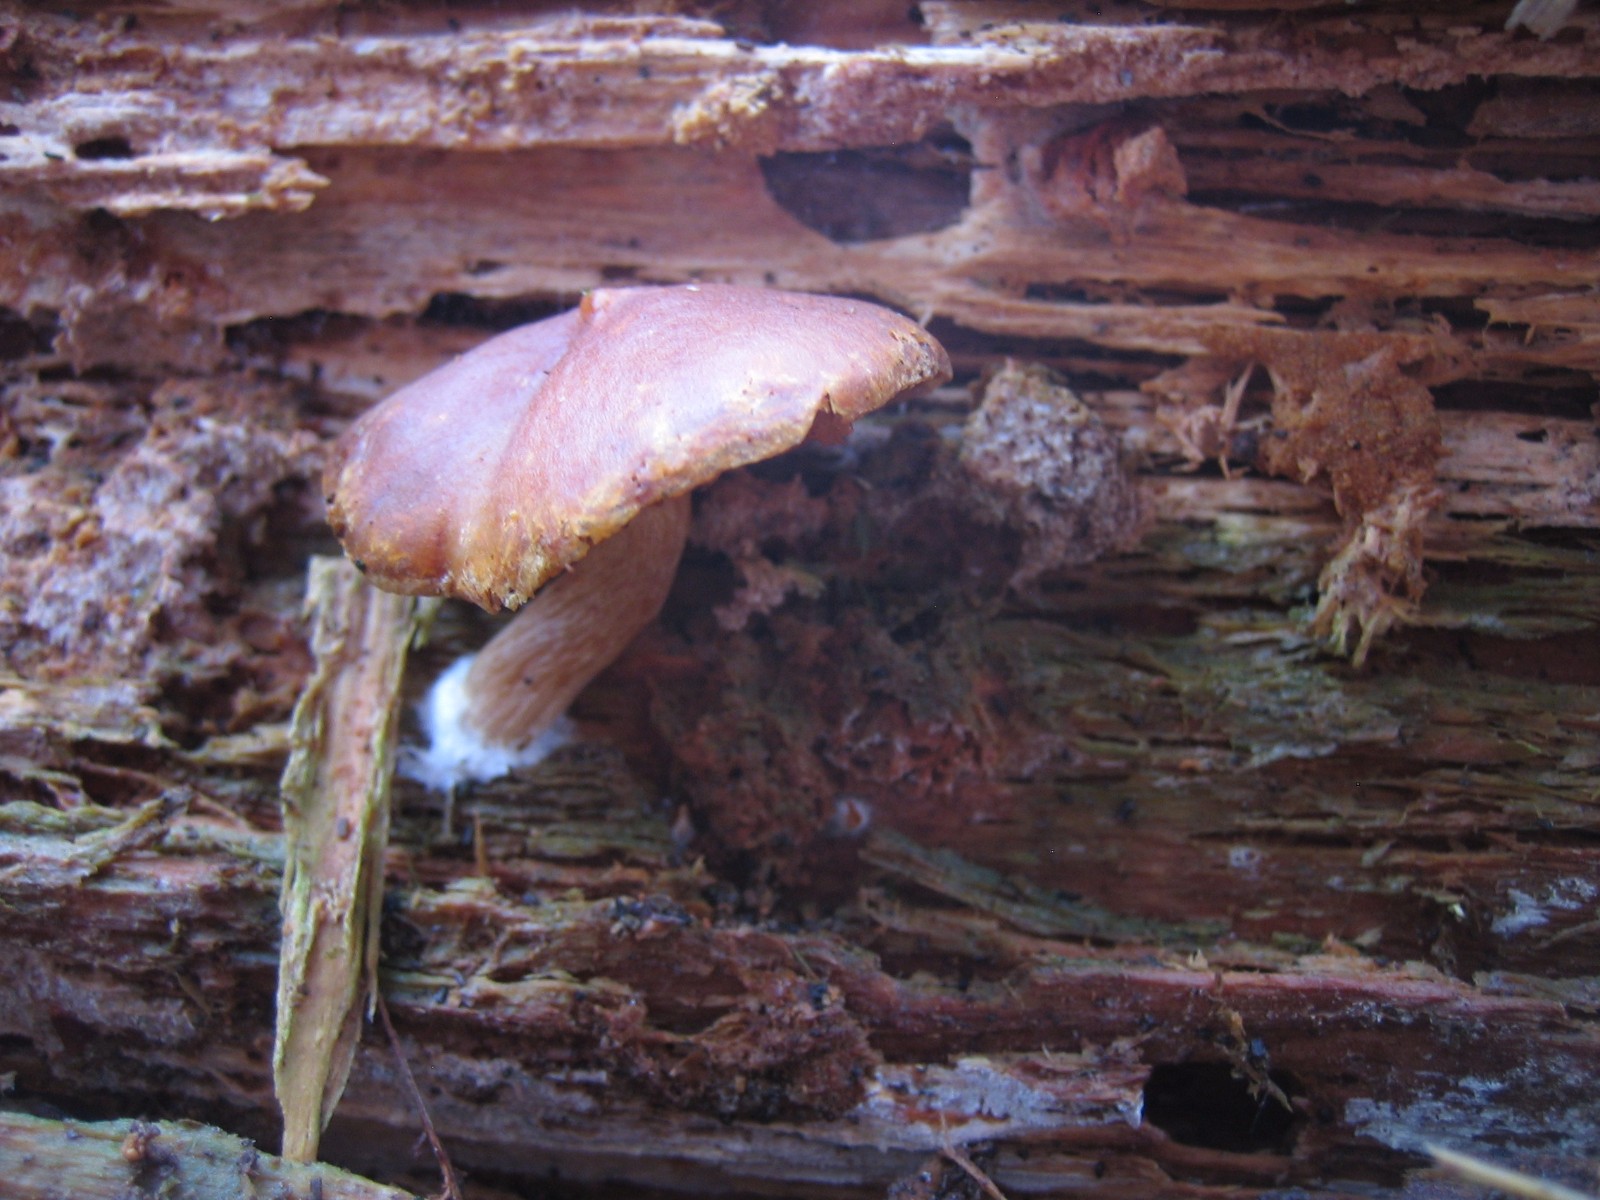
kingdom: Fungi
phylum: Basidiomycota
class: Agaricomycetes
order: Agaricales
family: Hymenogastraceae
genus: Gymnopilus
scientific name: Gymnopilus penetrans
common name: plettet flammehat
